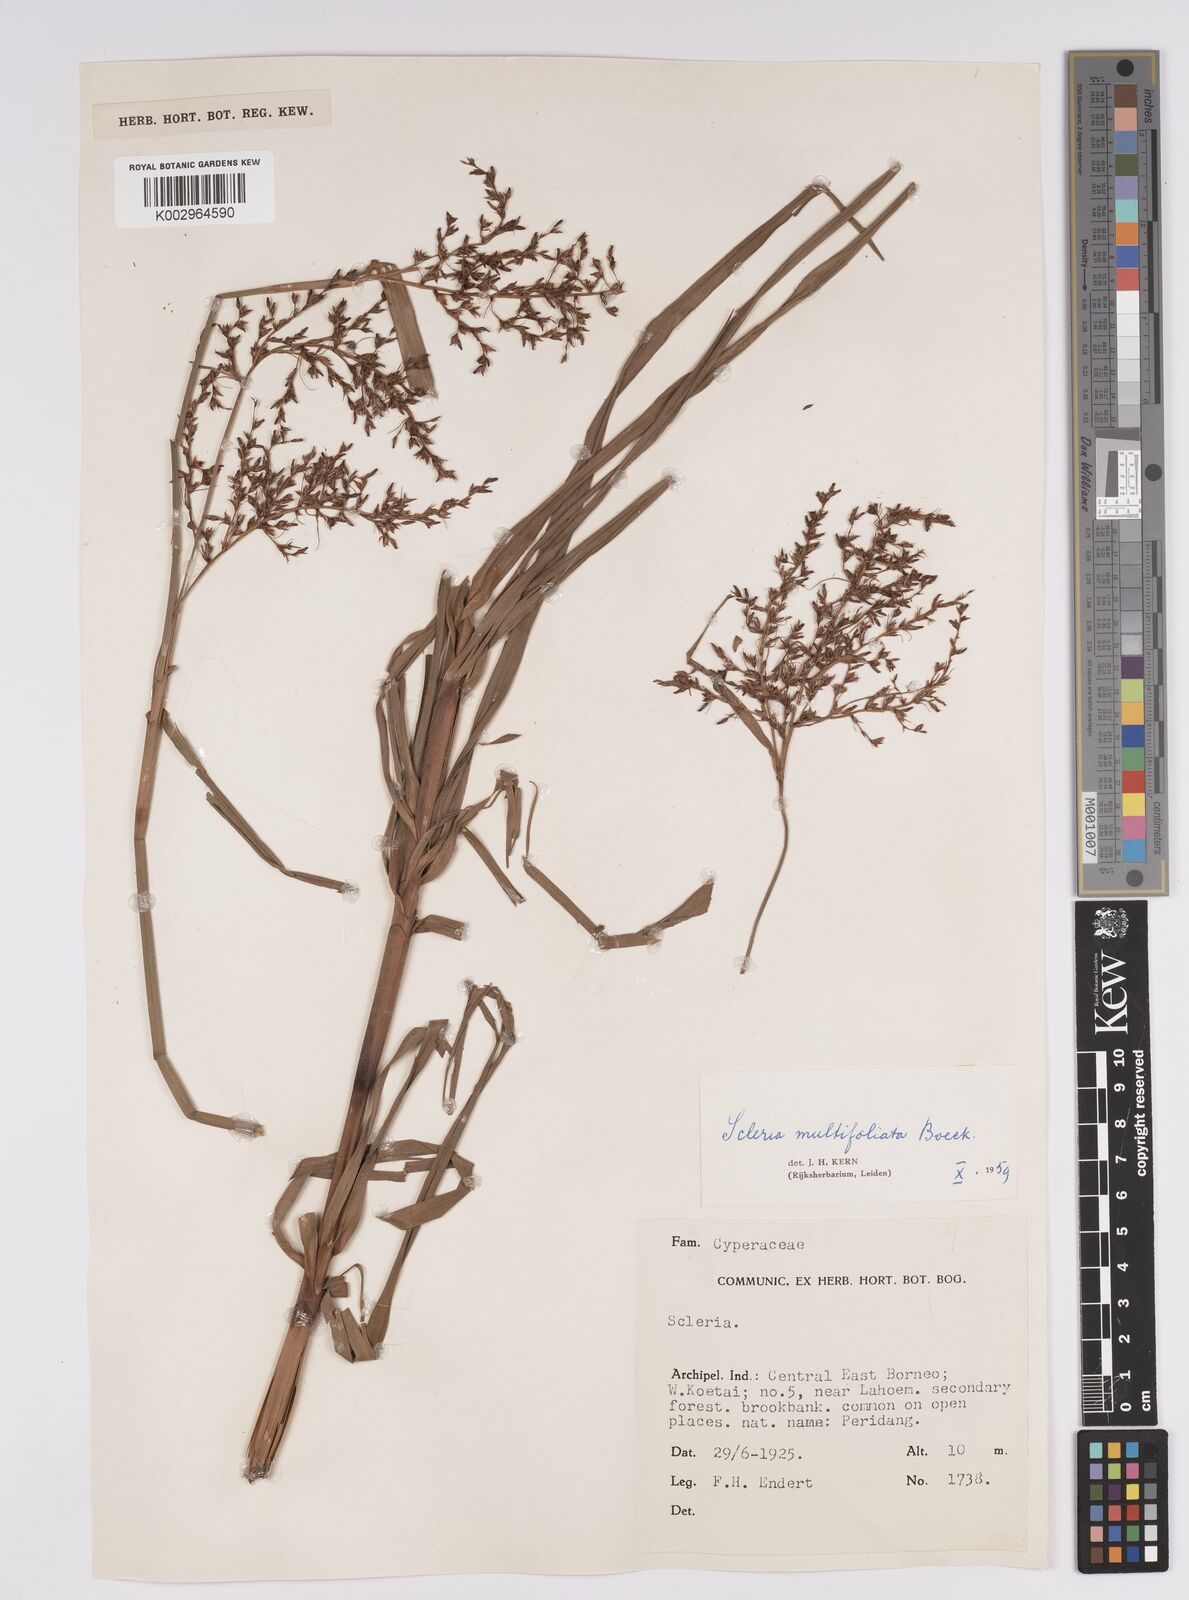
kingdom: Plantae
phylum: Tracheophyta
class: Liliopsida
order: Poales
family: Cyperaceae
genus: Scleria
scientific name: Scleria purpurascens
